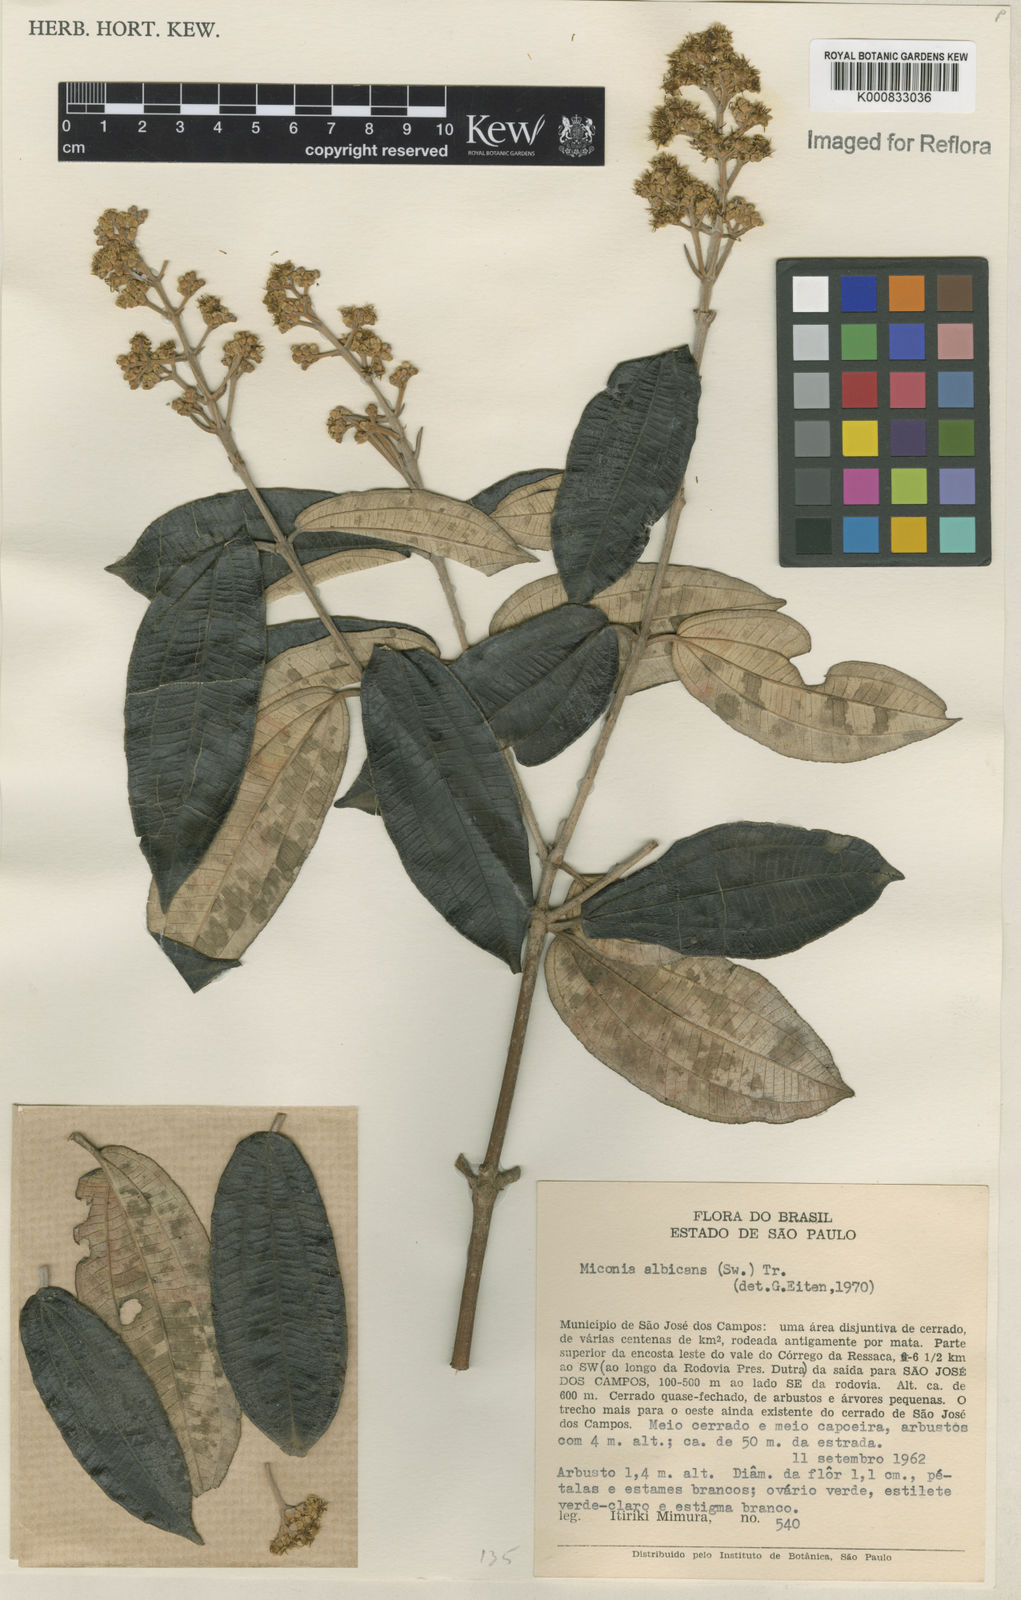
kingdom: Plantae
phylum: Tracheophyta
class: Magnoliopsida
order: Myrtales
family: Melastomataceae
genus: Miconia
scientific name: Miconia albicans
